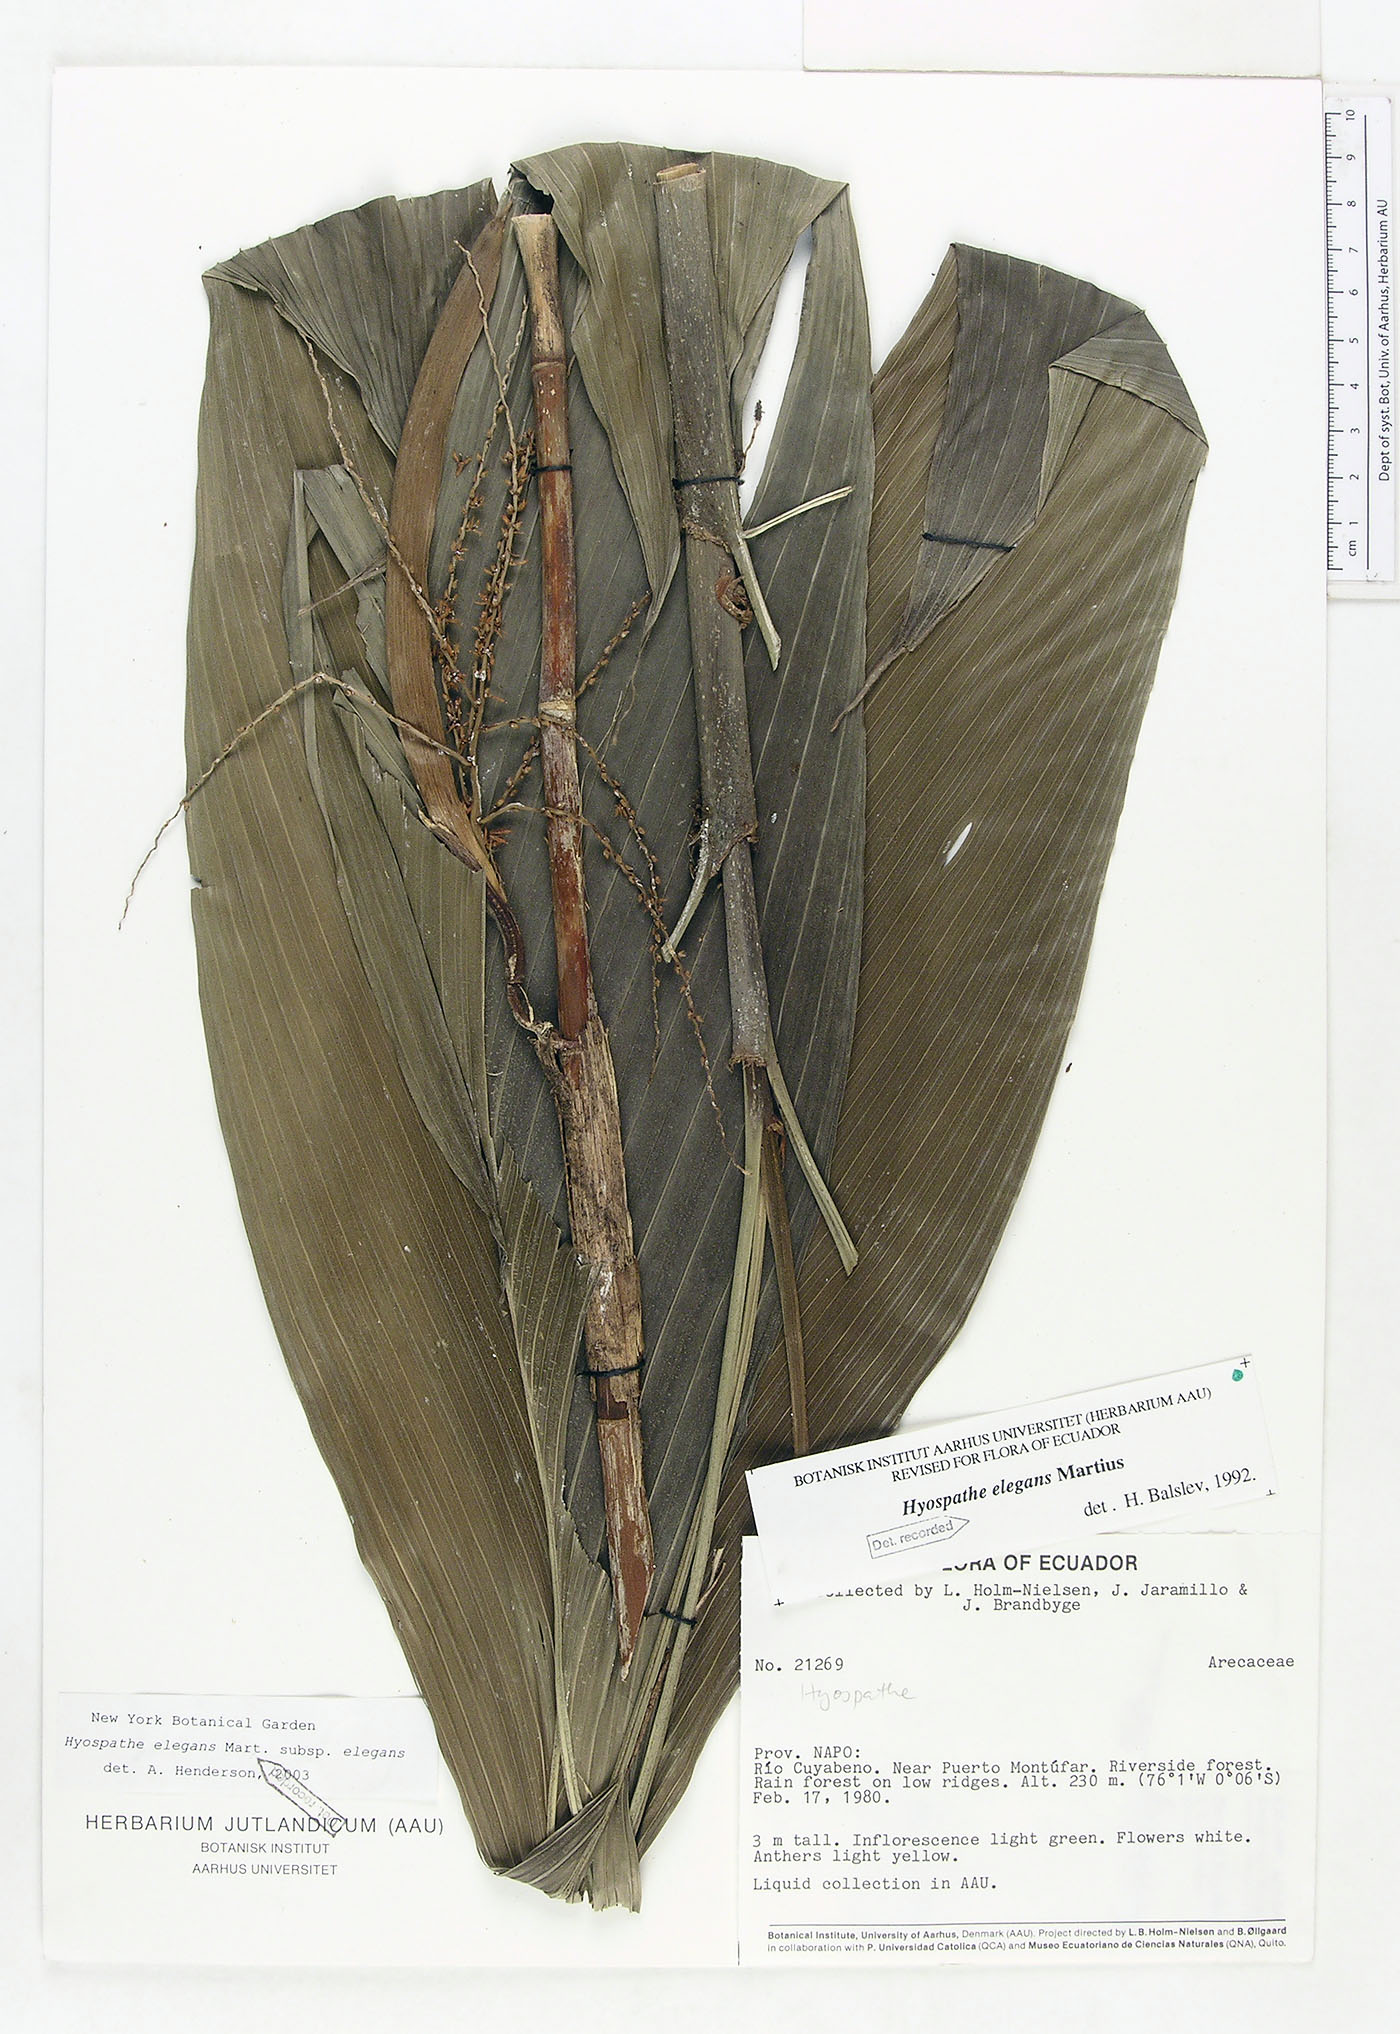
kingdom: Plantae
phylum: Tracheophyta
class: Liliopsida
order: Arecales
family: Arecaceae
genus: Hyospathe
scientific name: Hyospathe elegans
